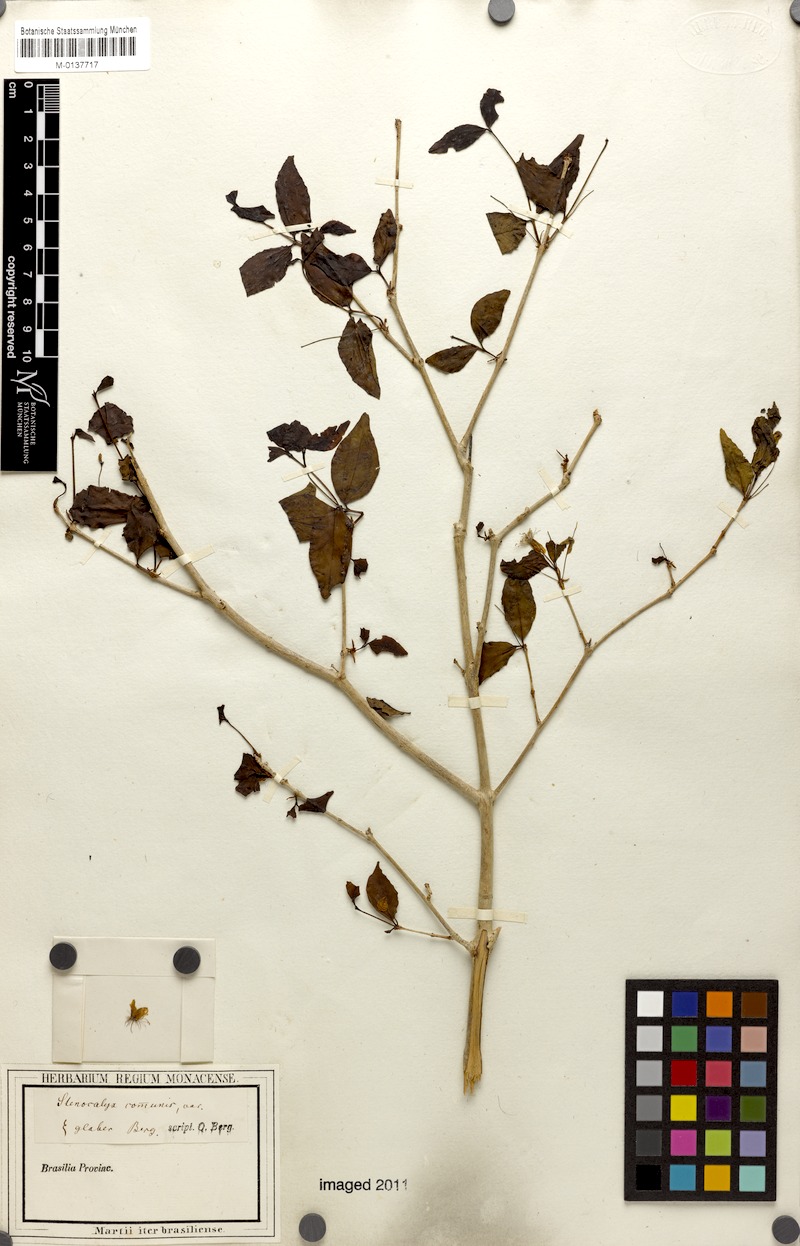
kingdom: Plantae
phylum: Tracheophyta
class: Magnoliopsida
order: Myrtales
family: Myrtaceae
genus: Eugenia
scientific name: Eugenia uniflora
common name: Surinam cherry
